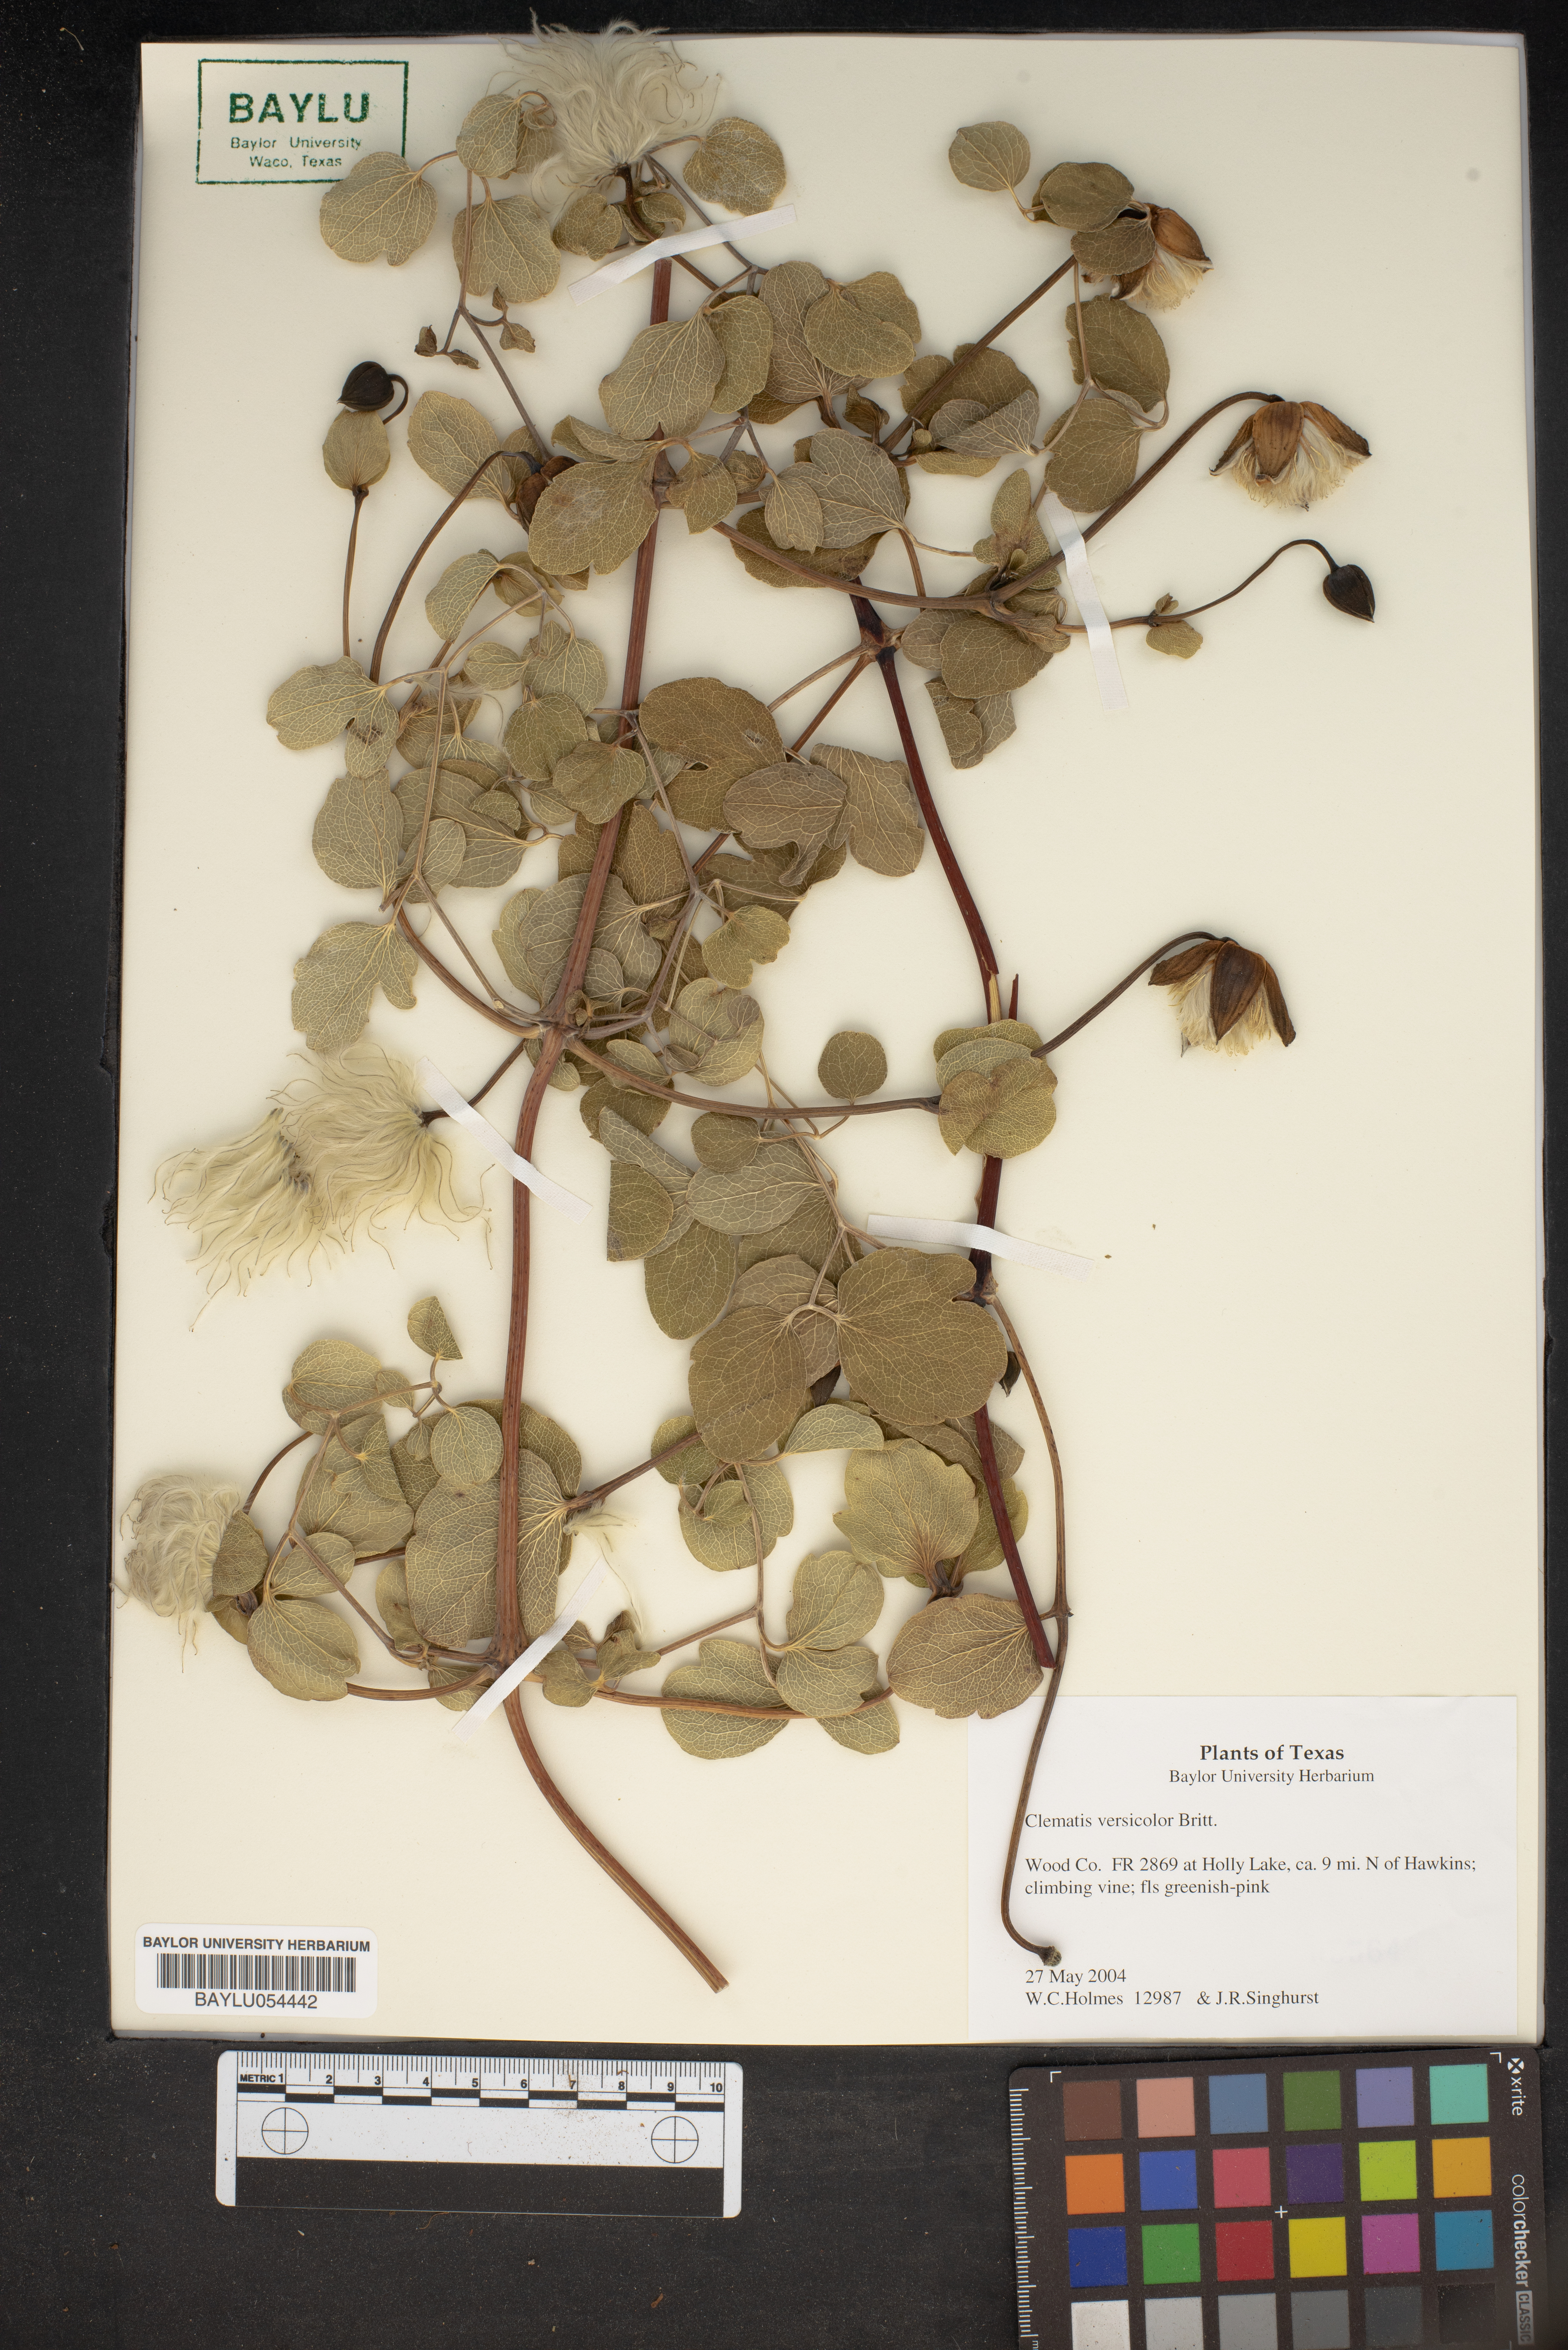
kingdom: Plantae
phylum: Tracheophyta
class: Magnoliopsida
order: Ranunculales
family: Ranunculaceae
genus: Clematis
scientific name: Clematis versicolor
